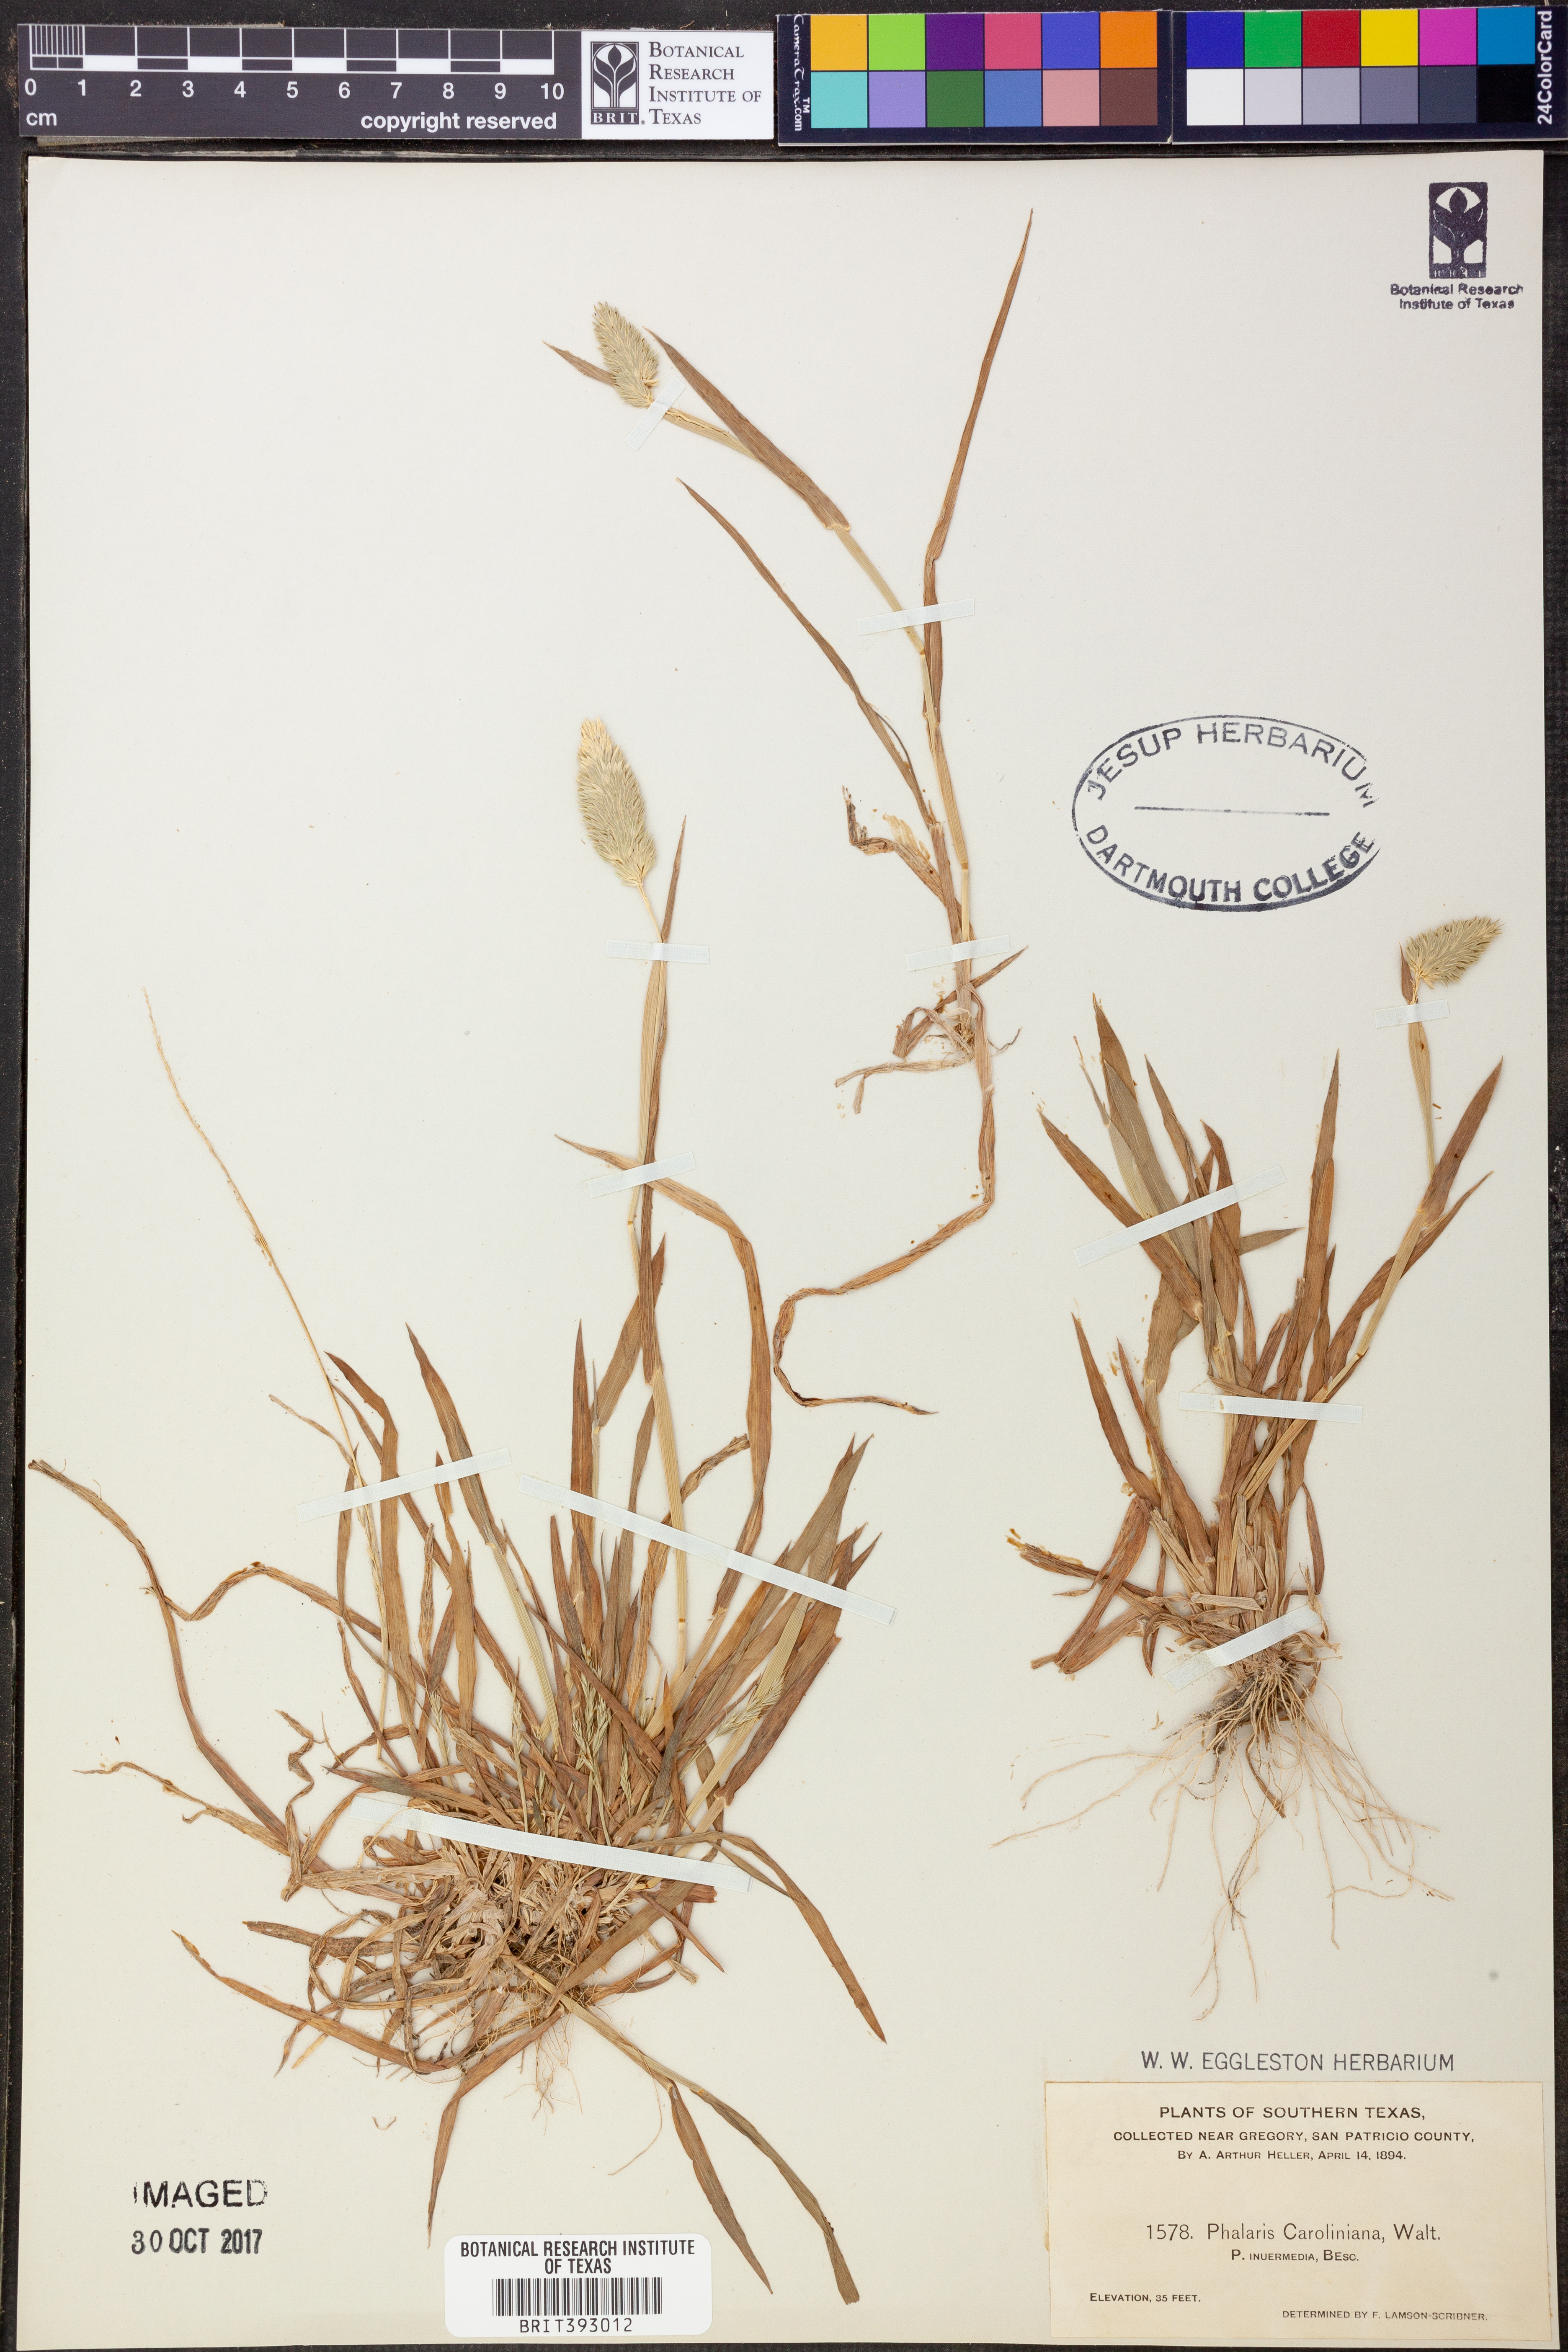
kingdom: Plantae
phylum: Tracheophyta
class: Liliopsida
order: Poales
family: Poaceae
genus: Phalaris
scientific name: Phalaris caroliniana
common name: May grass
